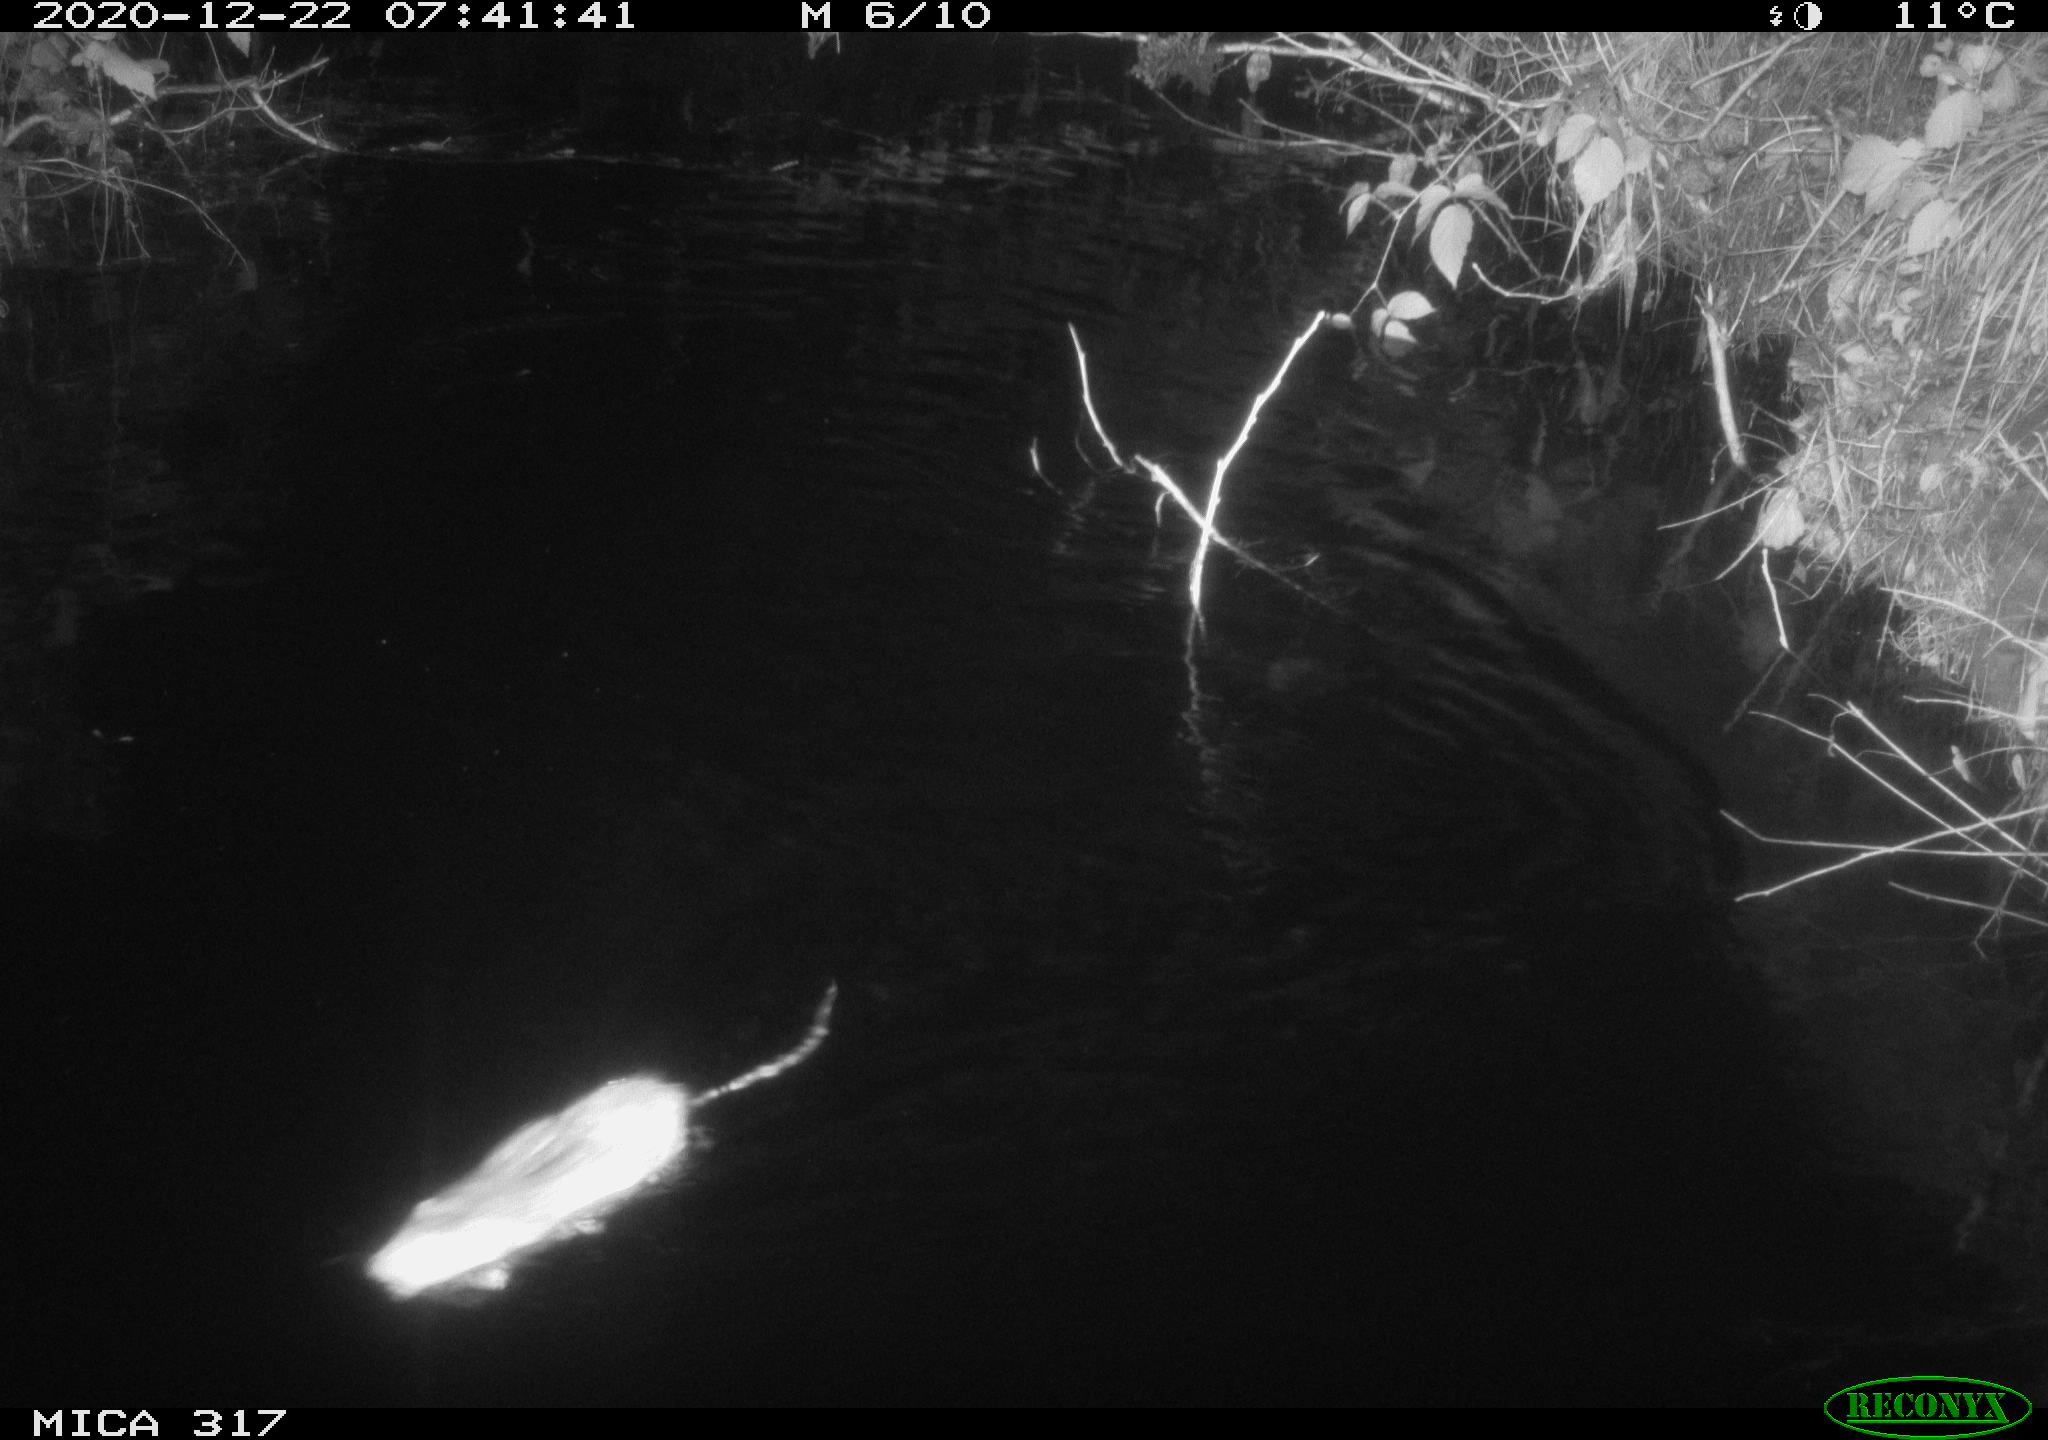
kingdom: Animalia
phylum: Chordata
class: Mammalia
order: Rodentia
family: Muridae
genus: Rattus
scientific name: Rattus norvegicus
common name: Brown rat
